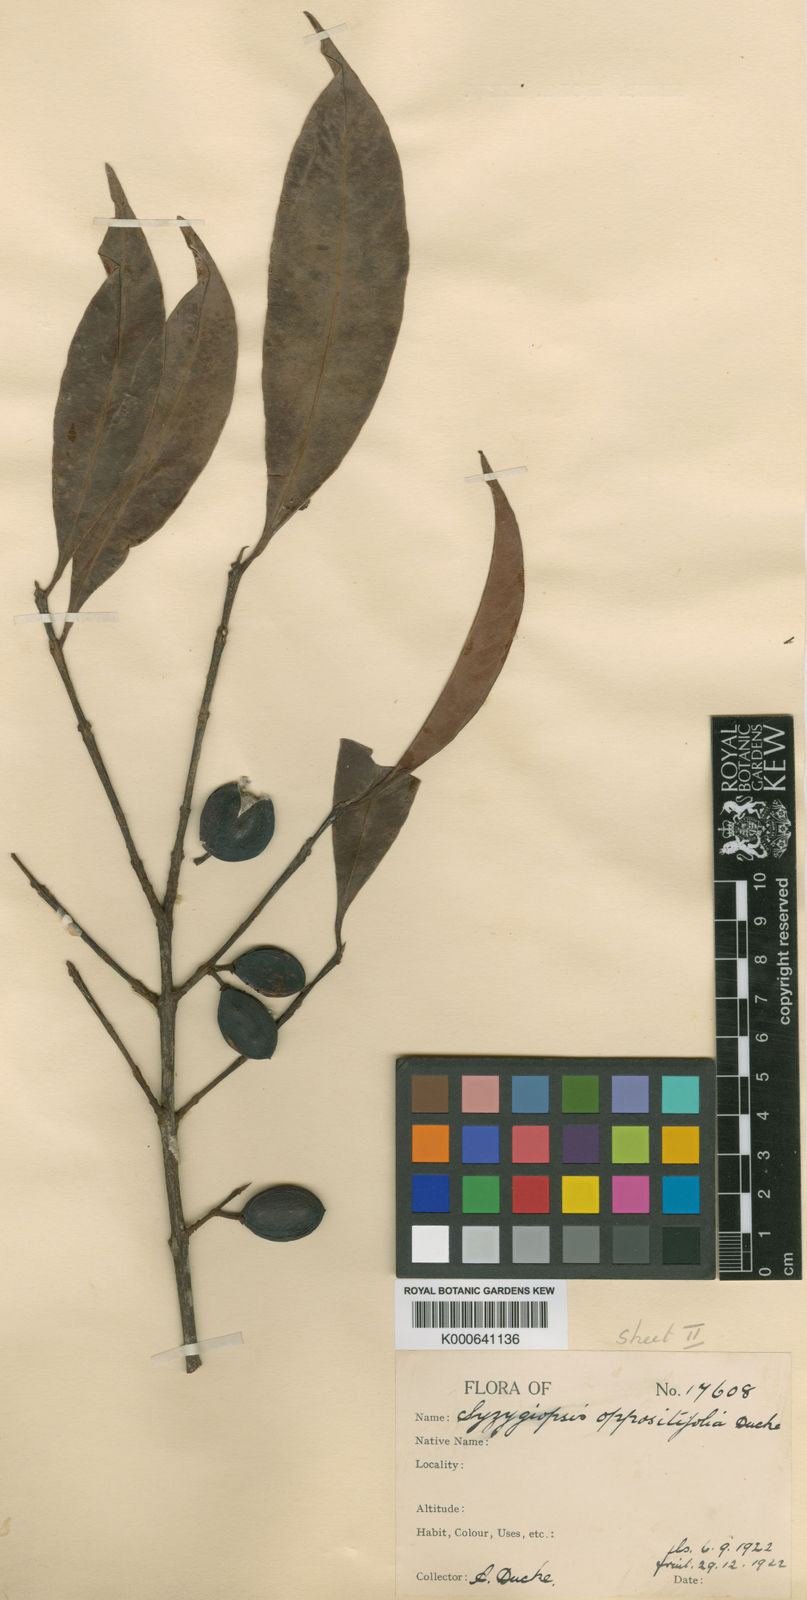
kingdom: Plantae
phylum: Tracheophyta
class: Magnoliopsida
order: Ericales
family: Sapotaceae
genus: Pouteria
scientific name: Pouteria oppositifolia
